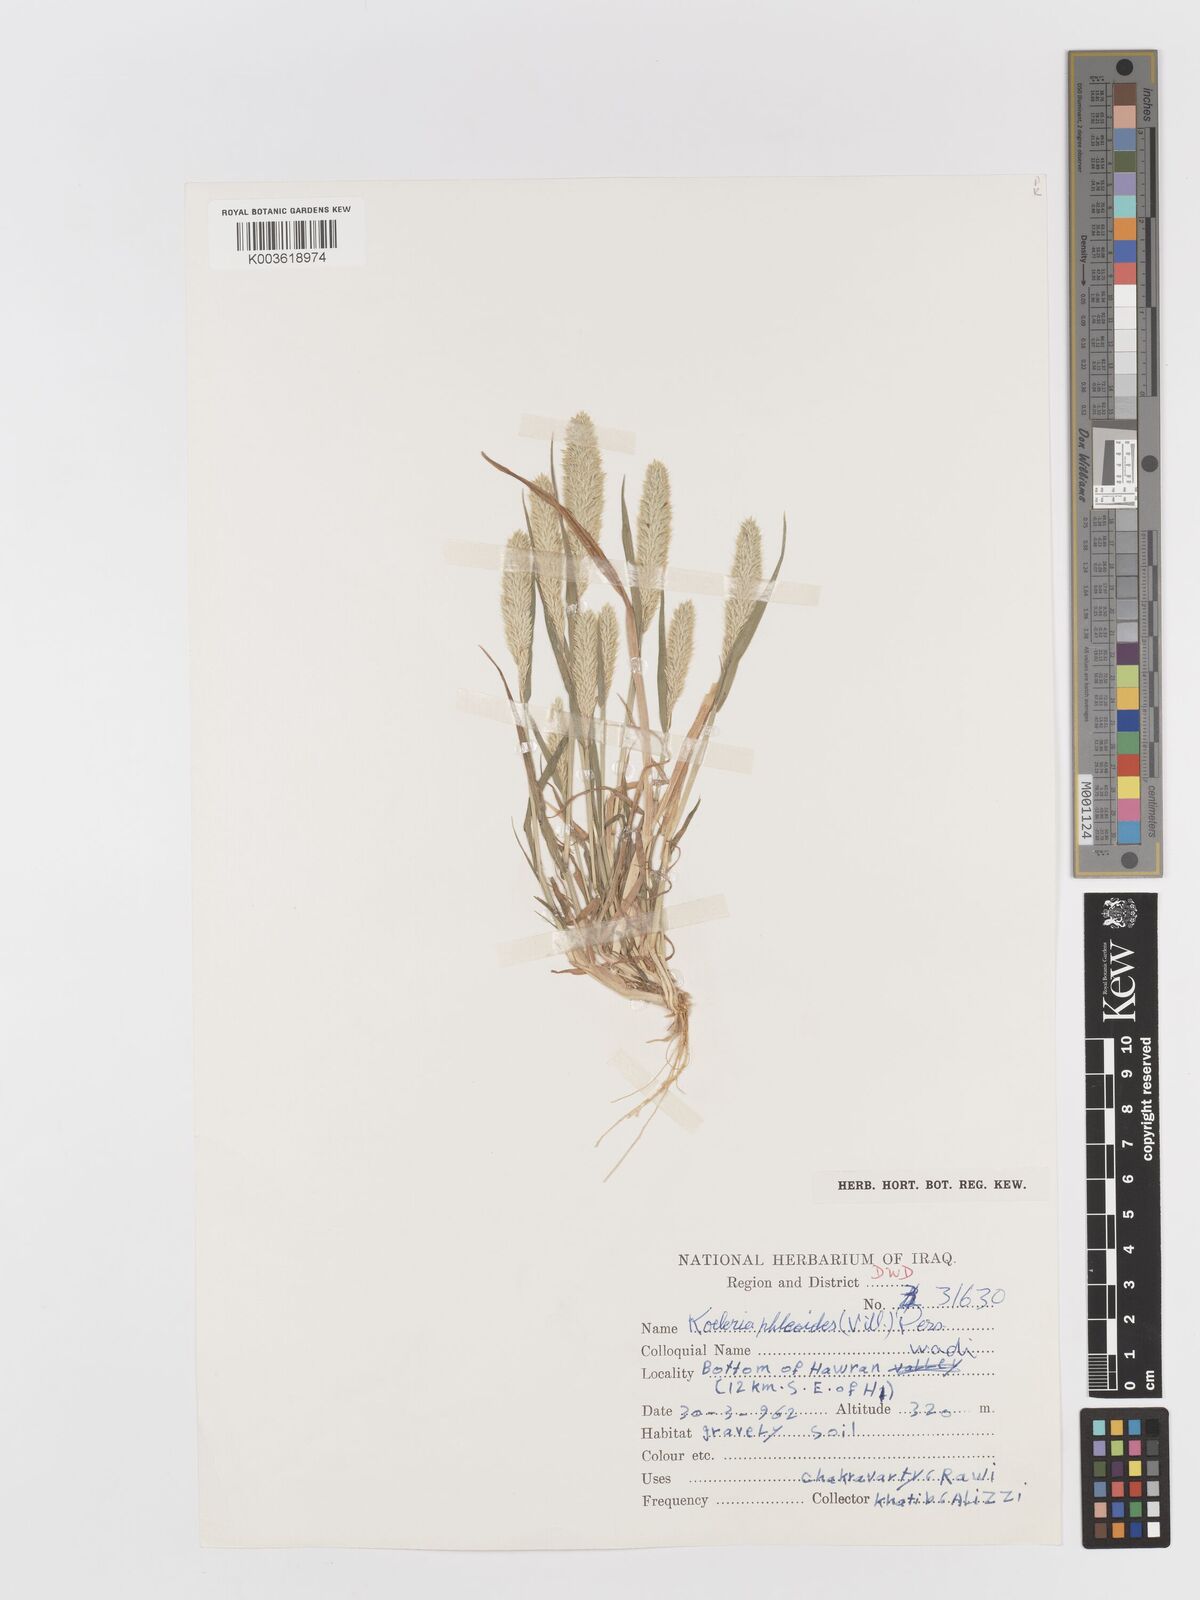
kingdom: Plantae
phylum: Tracheophyta
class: Liliopsida
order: Poales
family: Poaceae
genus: Rostraria
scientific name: Rostraria cristata
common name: Mediterranean hair-grass
